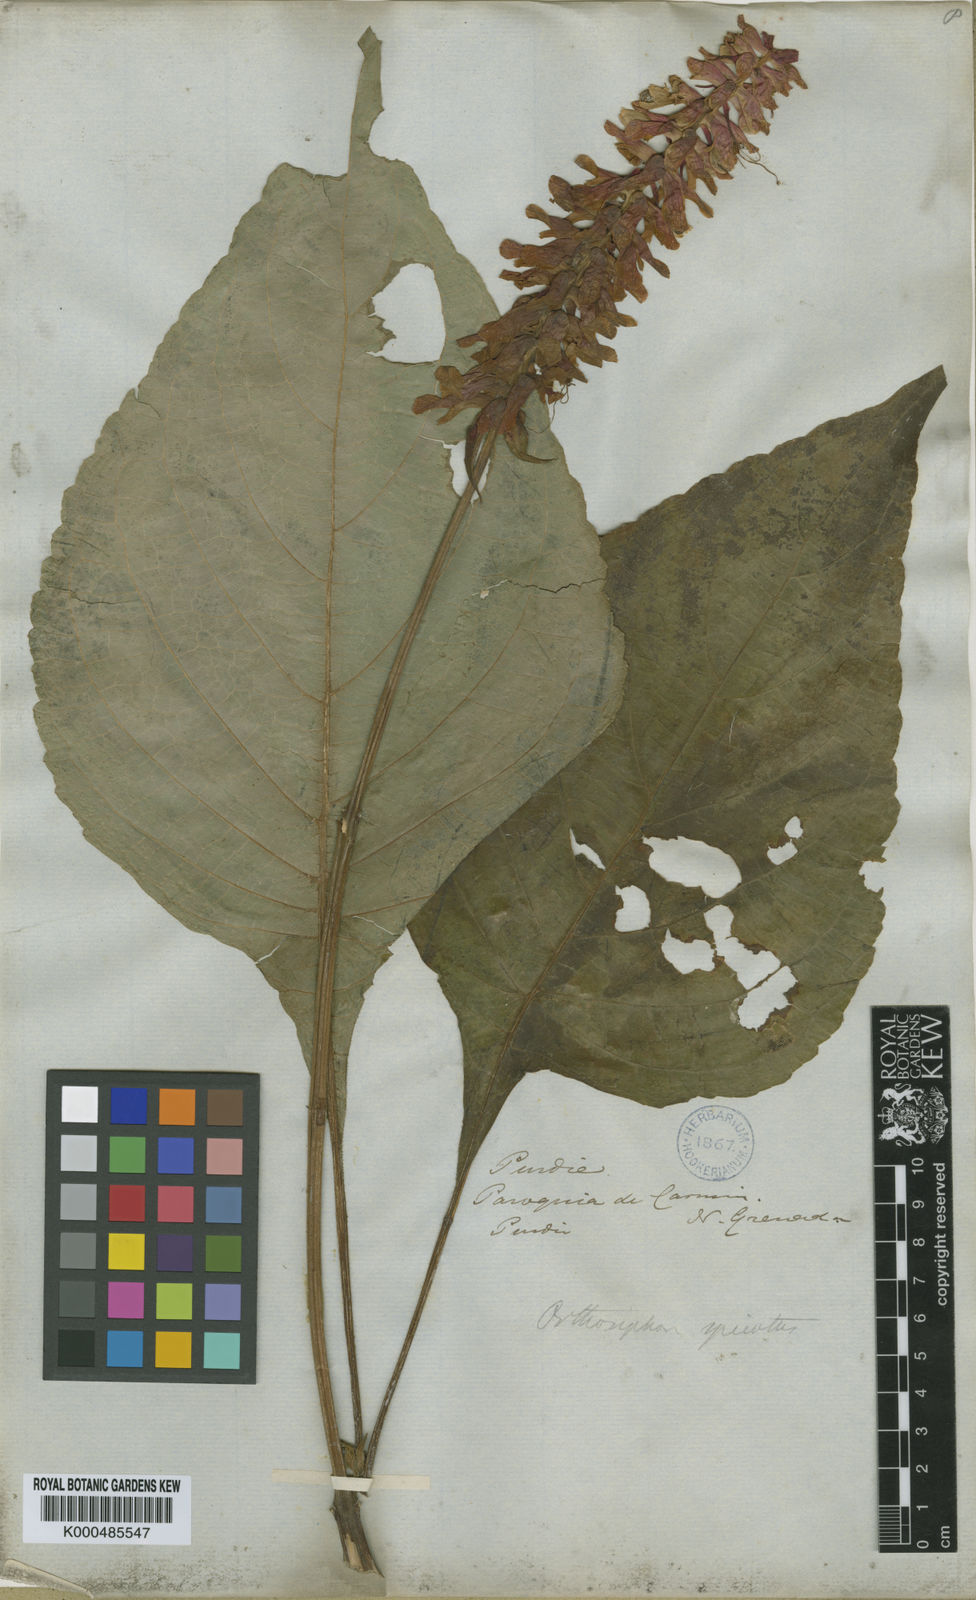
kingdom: Plantae
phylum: Tracheophyta
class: Magnoliopsida
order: Lamiales
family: Lamiaceae
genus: Catoferia
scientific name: Catoferia spicata
